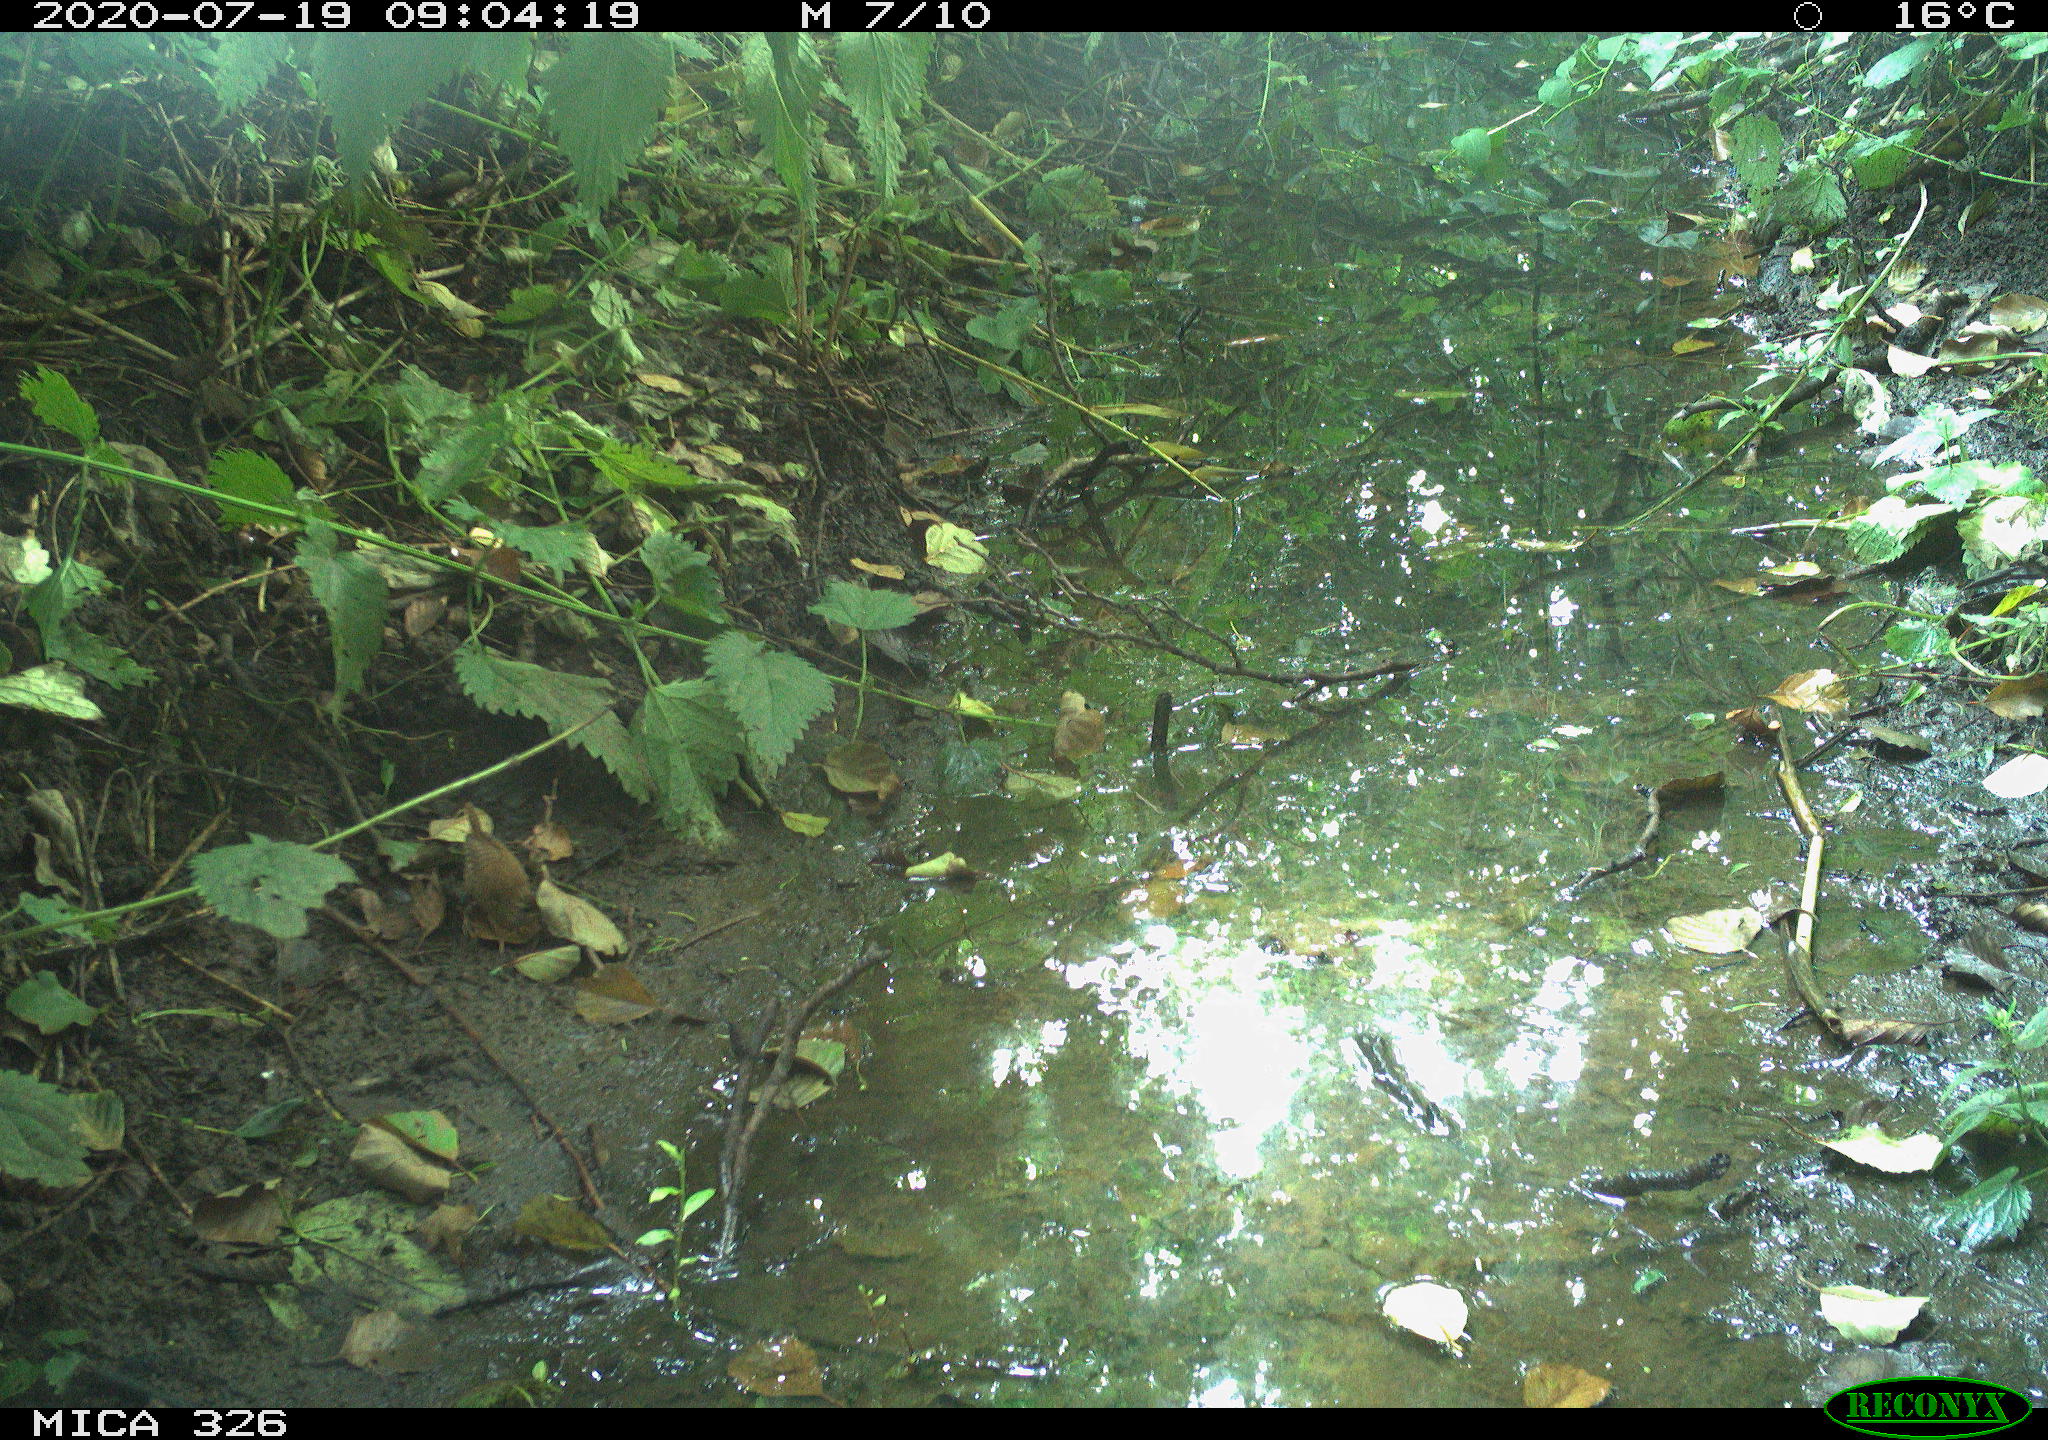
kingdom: Animalia
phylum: Chordata
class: Aves
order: Passeriformes
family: Troglodytidae
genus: Troglodytes
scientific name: Troglodytes troglodytes
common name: Eurasian wren
